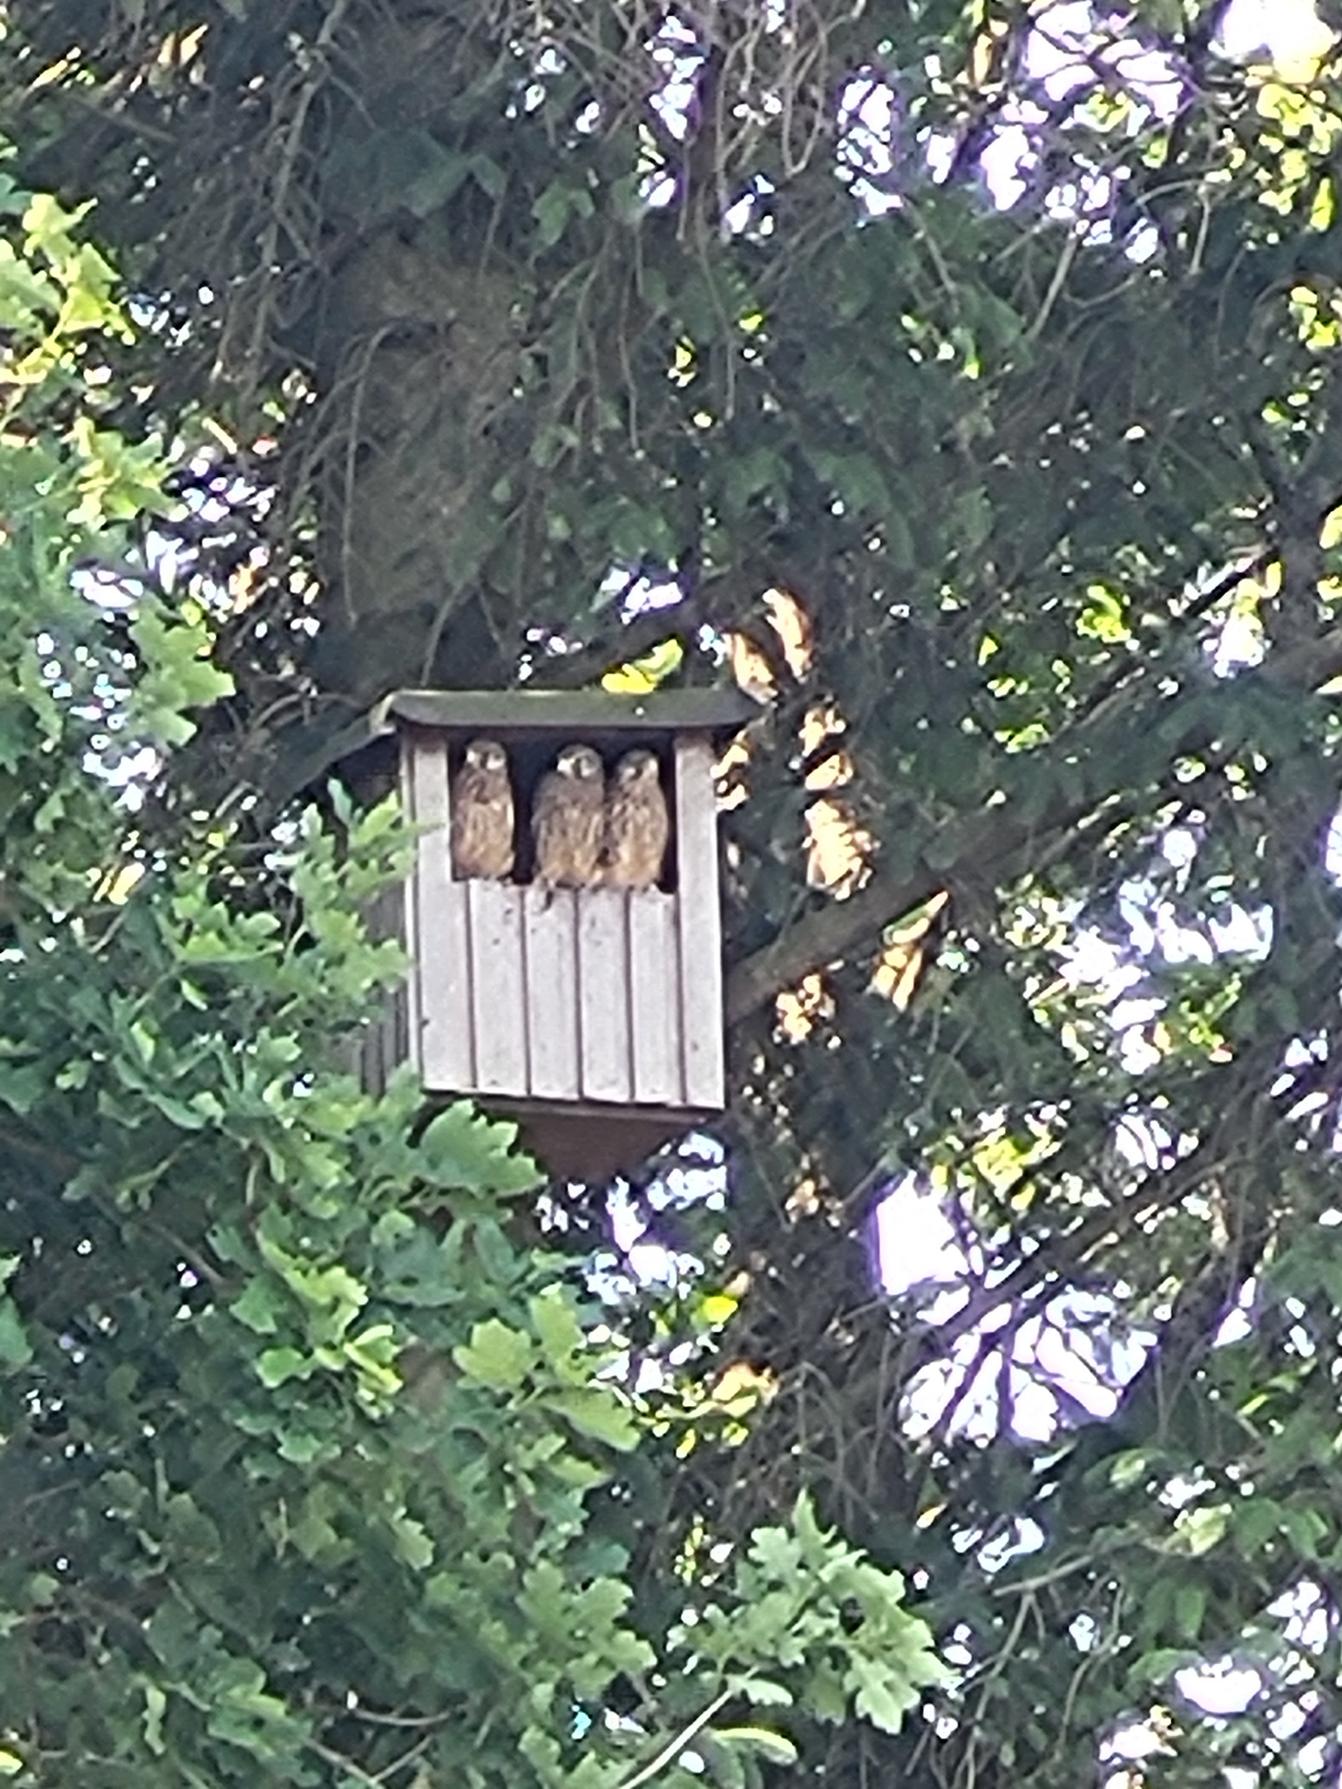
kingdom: Animalia
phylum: Chordata
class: Aves
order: Falconiformes
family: Falconidae
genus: Falco
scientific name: Falco tinnunculus
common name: Tårnfalk
